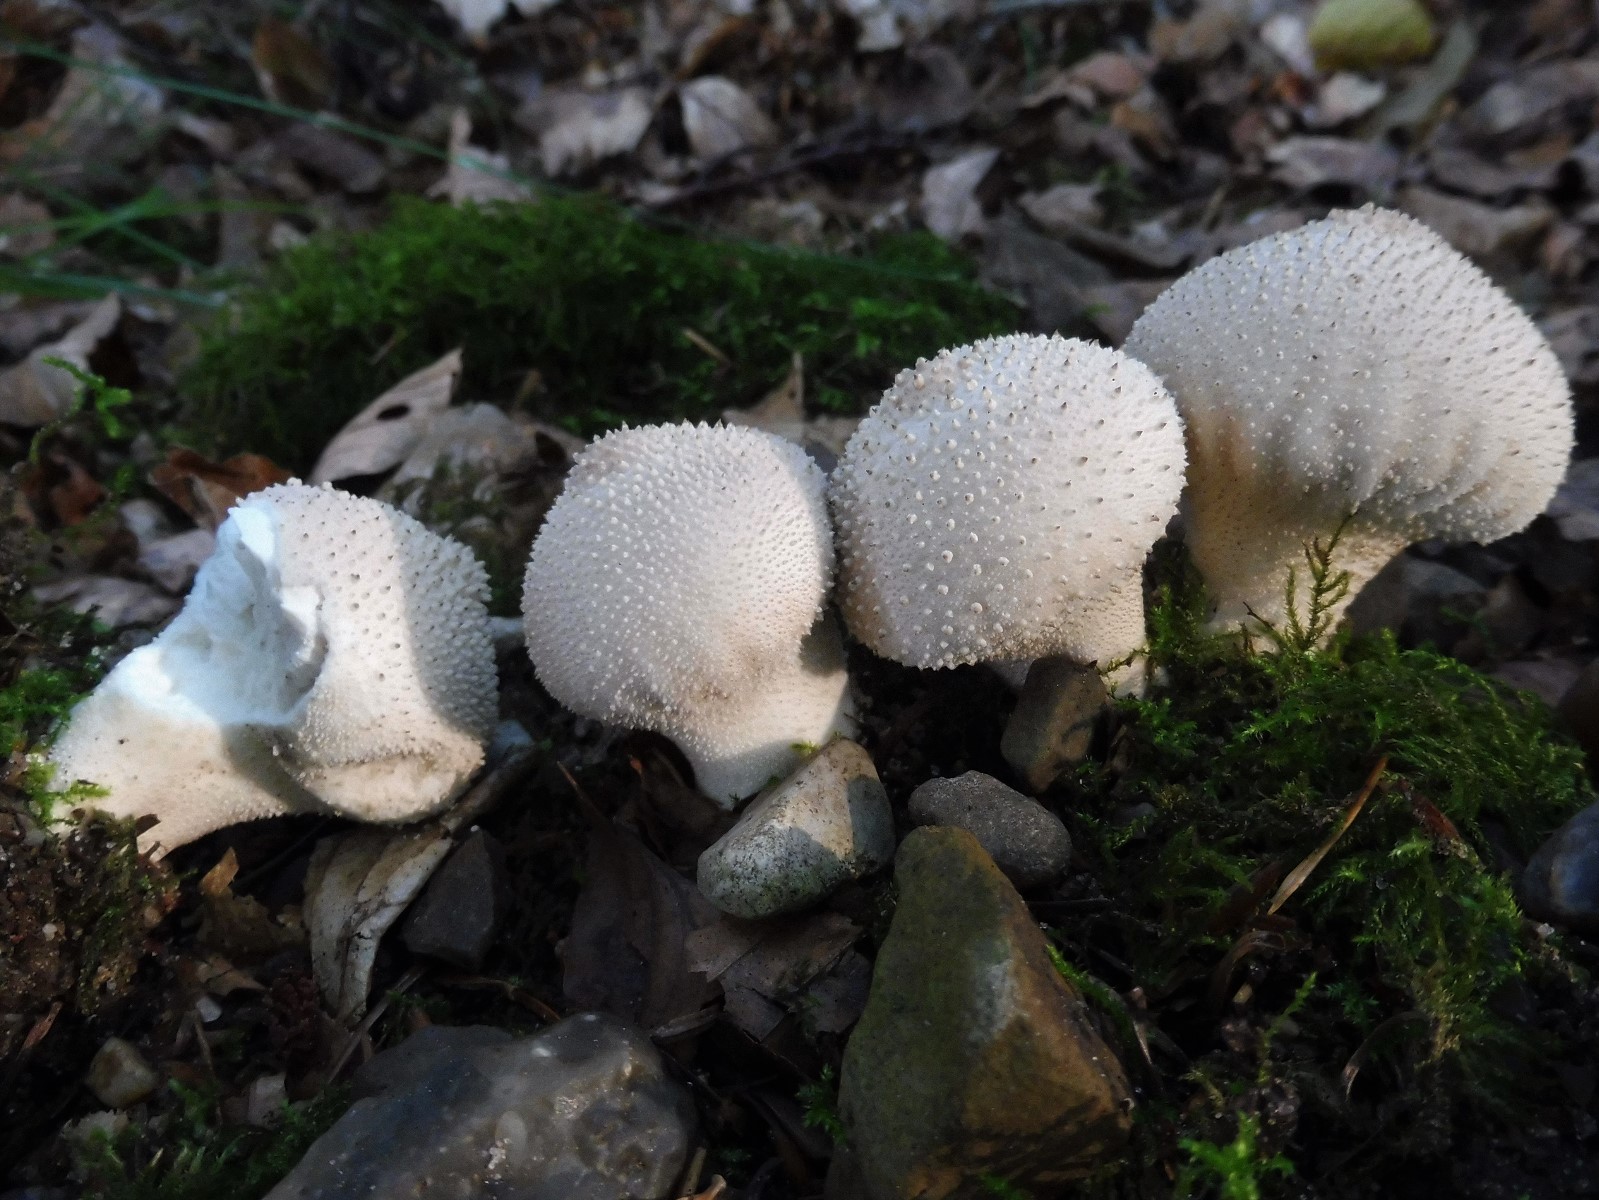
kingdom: Fungi
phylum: Basidiomycota
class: Agaricomycetes
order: Agaricales
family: Lycoperdaceae
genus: Lycoperdon
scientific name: Lycoperdon perlatum
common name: krystal-støvbold
